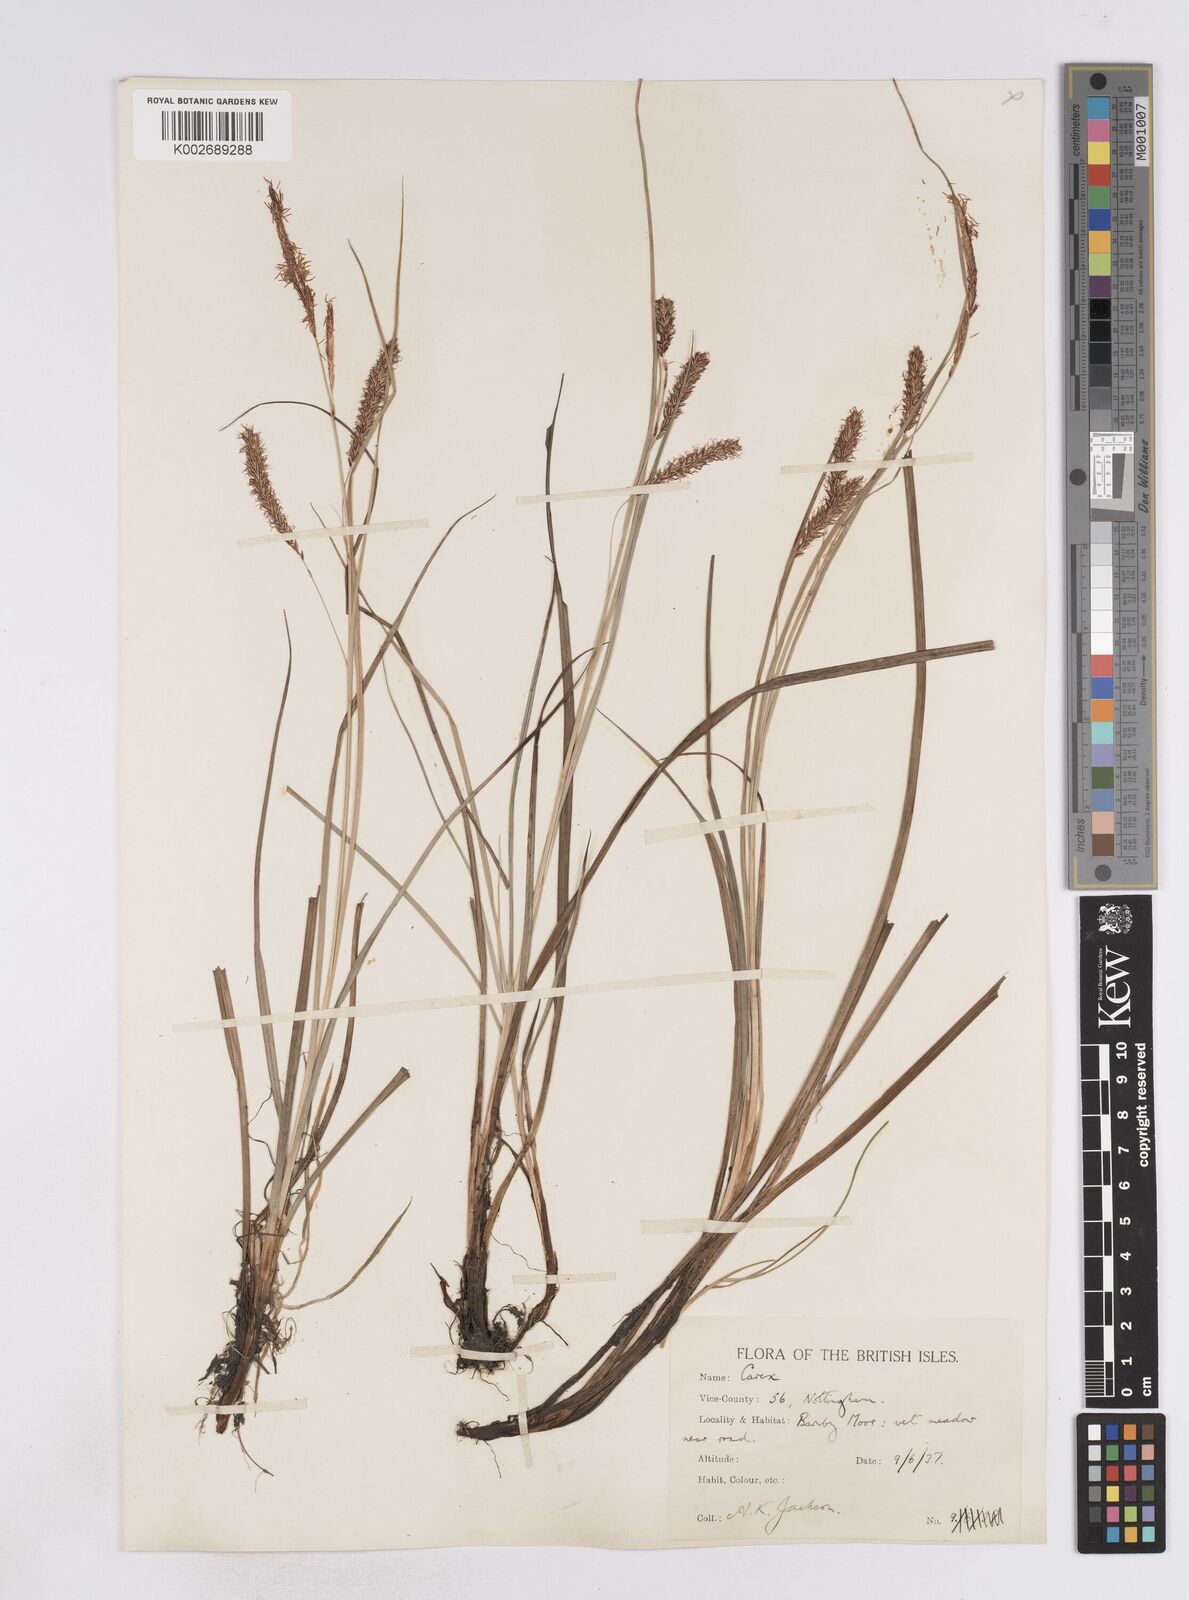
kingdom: Plantae
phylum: Tracheophyta
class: Liliopsida
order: Poales
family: Cyperaceae
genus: Carex
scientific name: Carex flacca
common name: Glaucous sedge
